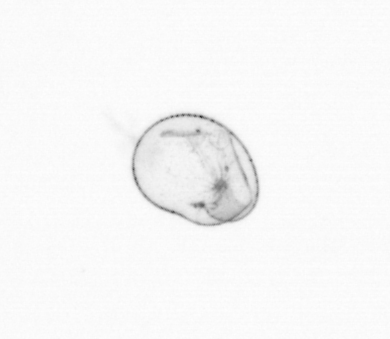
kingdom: Chromista
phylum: Myzozoa
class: Dinophyceae
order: Noctilucales
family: Noctilucaceae
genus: Noctiluca
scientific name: Noctiluca scintillans
